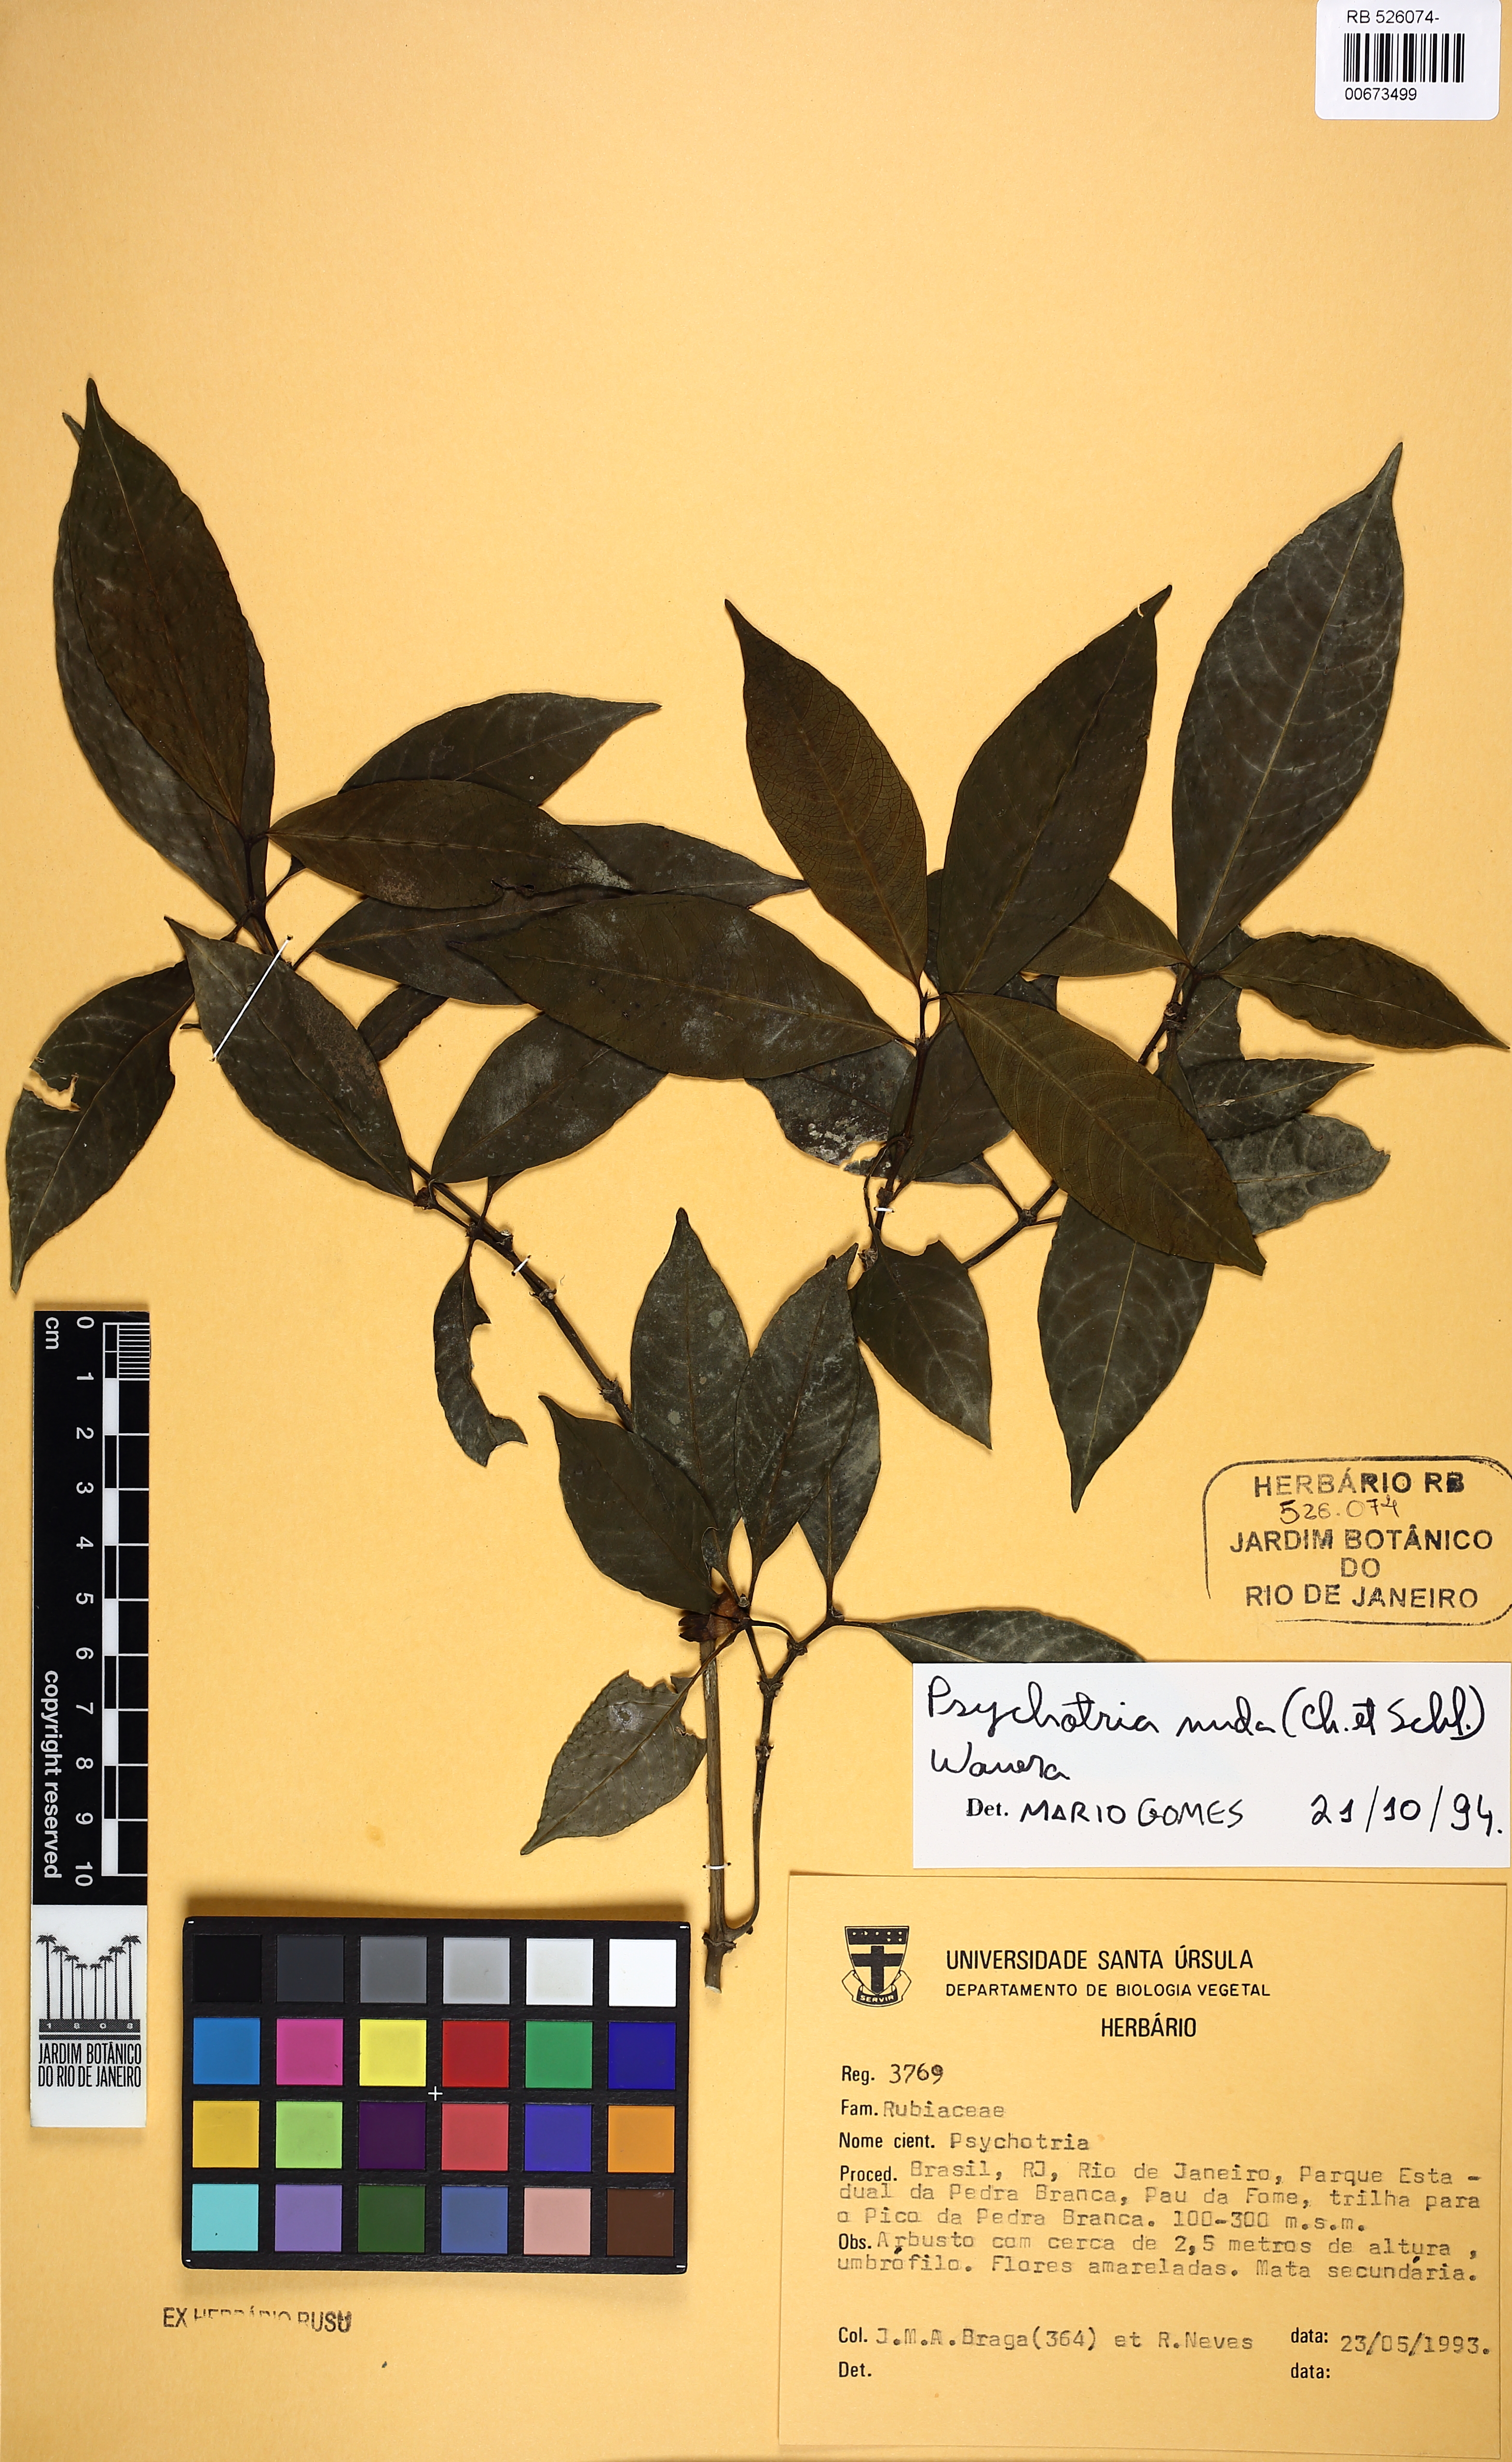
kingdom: Plantae
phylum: Tracheophyta
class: Magnoliopsida
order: Gentianales
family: Rubiaceae
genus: Psychotria
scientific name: Psychotria nuda
